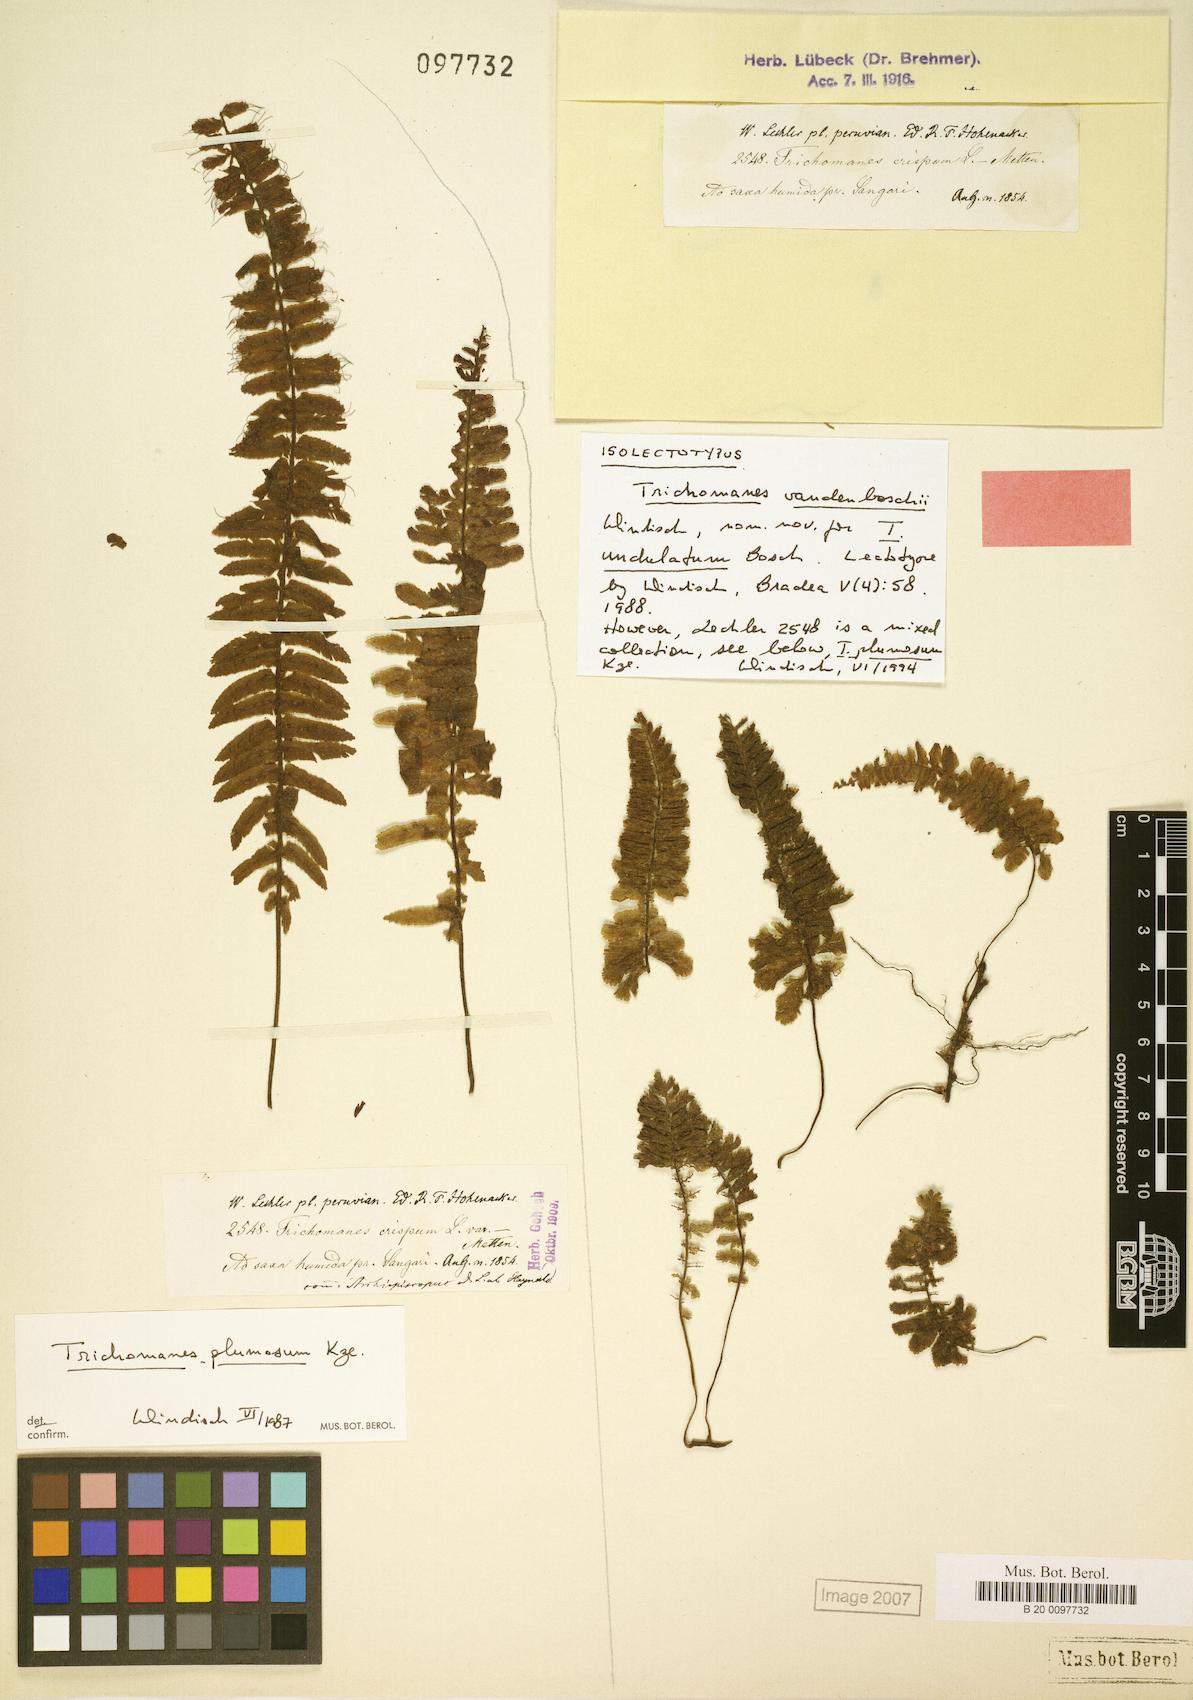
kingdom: Plantae
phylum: Tracheophyta
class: Polypodiopsida
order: Hymenophyllales
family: Hymenophyllaceae
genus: Trichomanes
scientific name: Trichomanes vandenboschii
